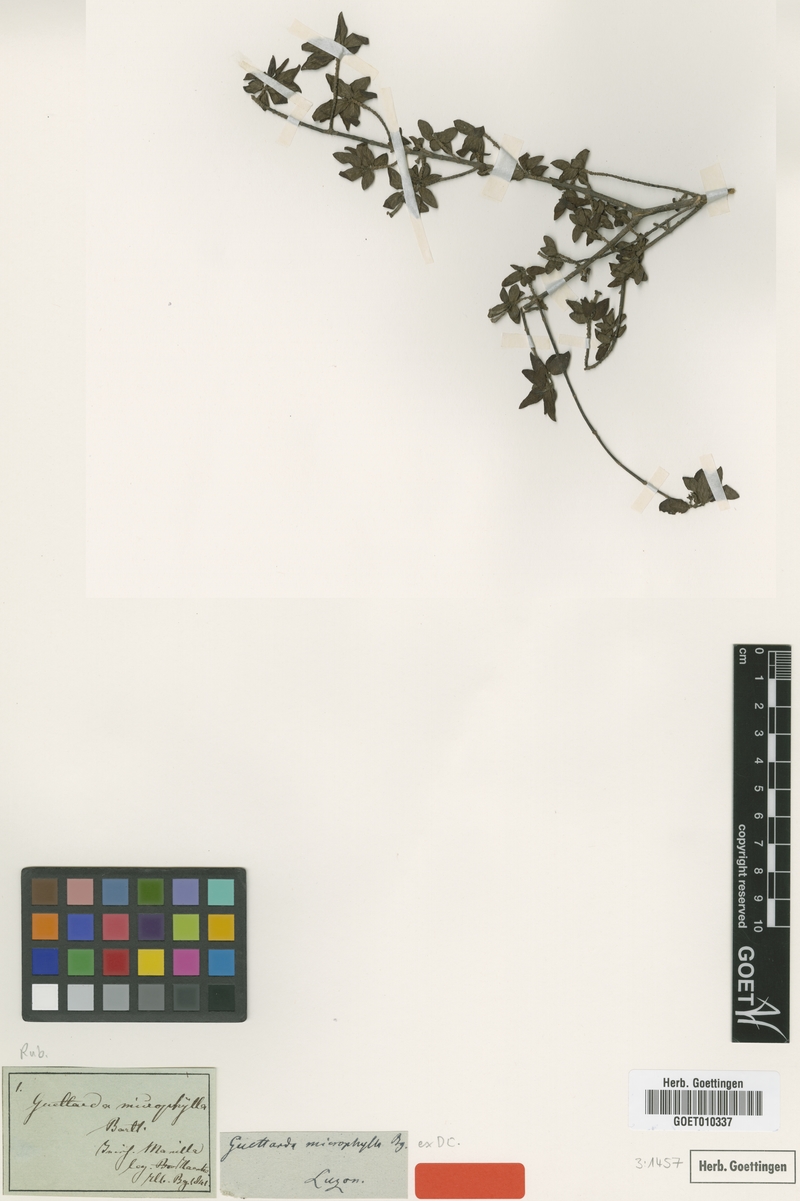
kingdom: Plantae
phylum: Tracheophyta
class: Magnoliopsida
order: Gentianales
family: Rubiaceae
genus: Guettardella
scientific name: Guettardella microphylla
